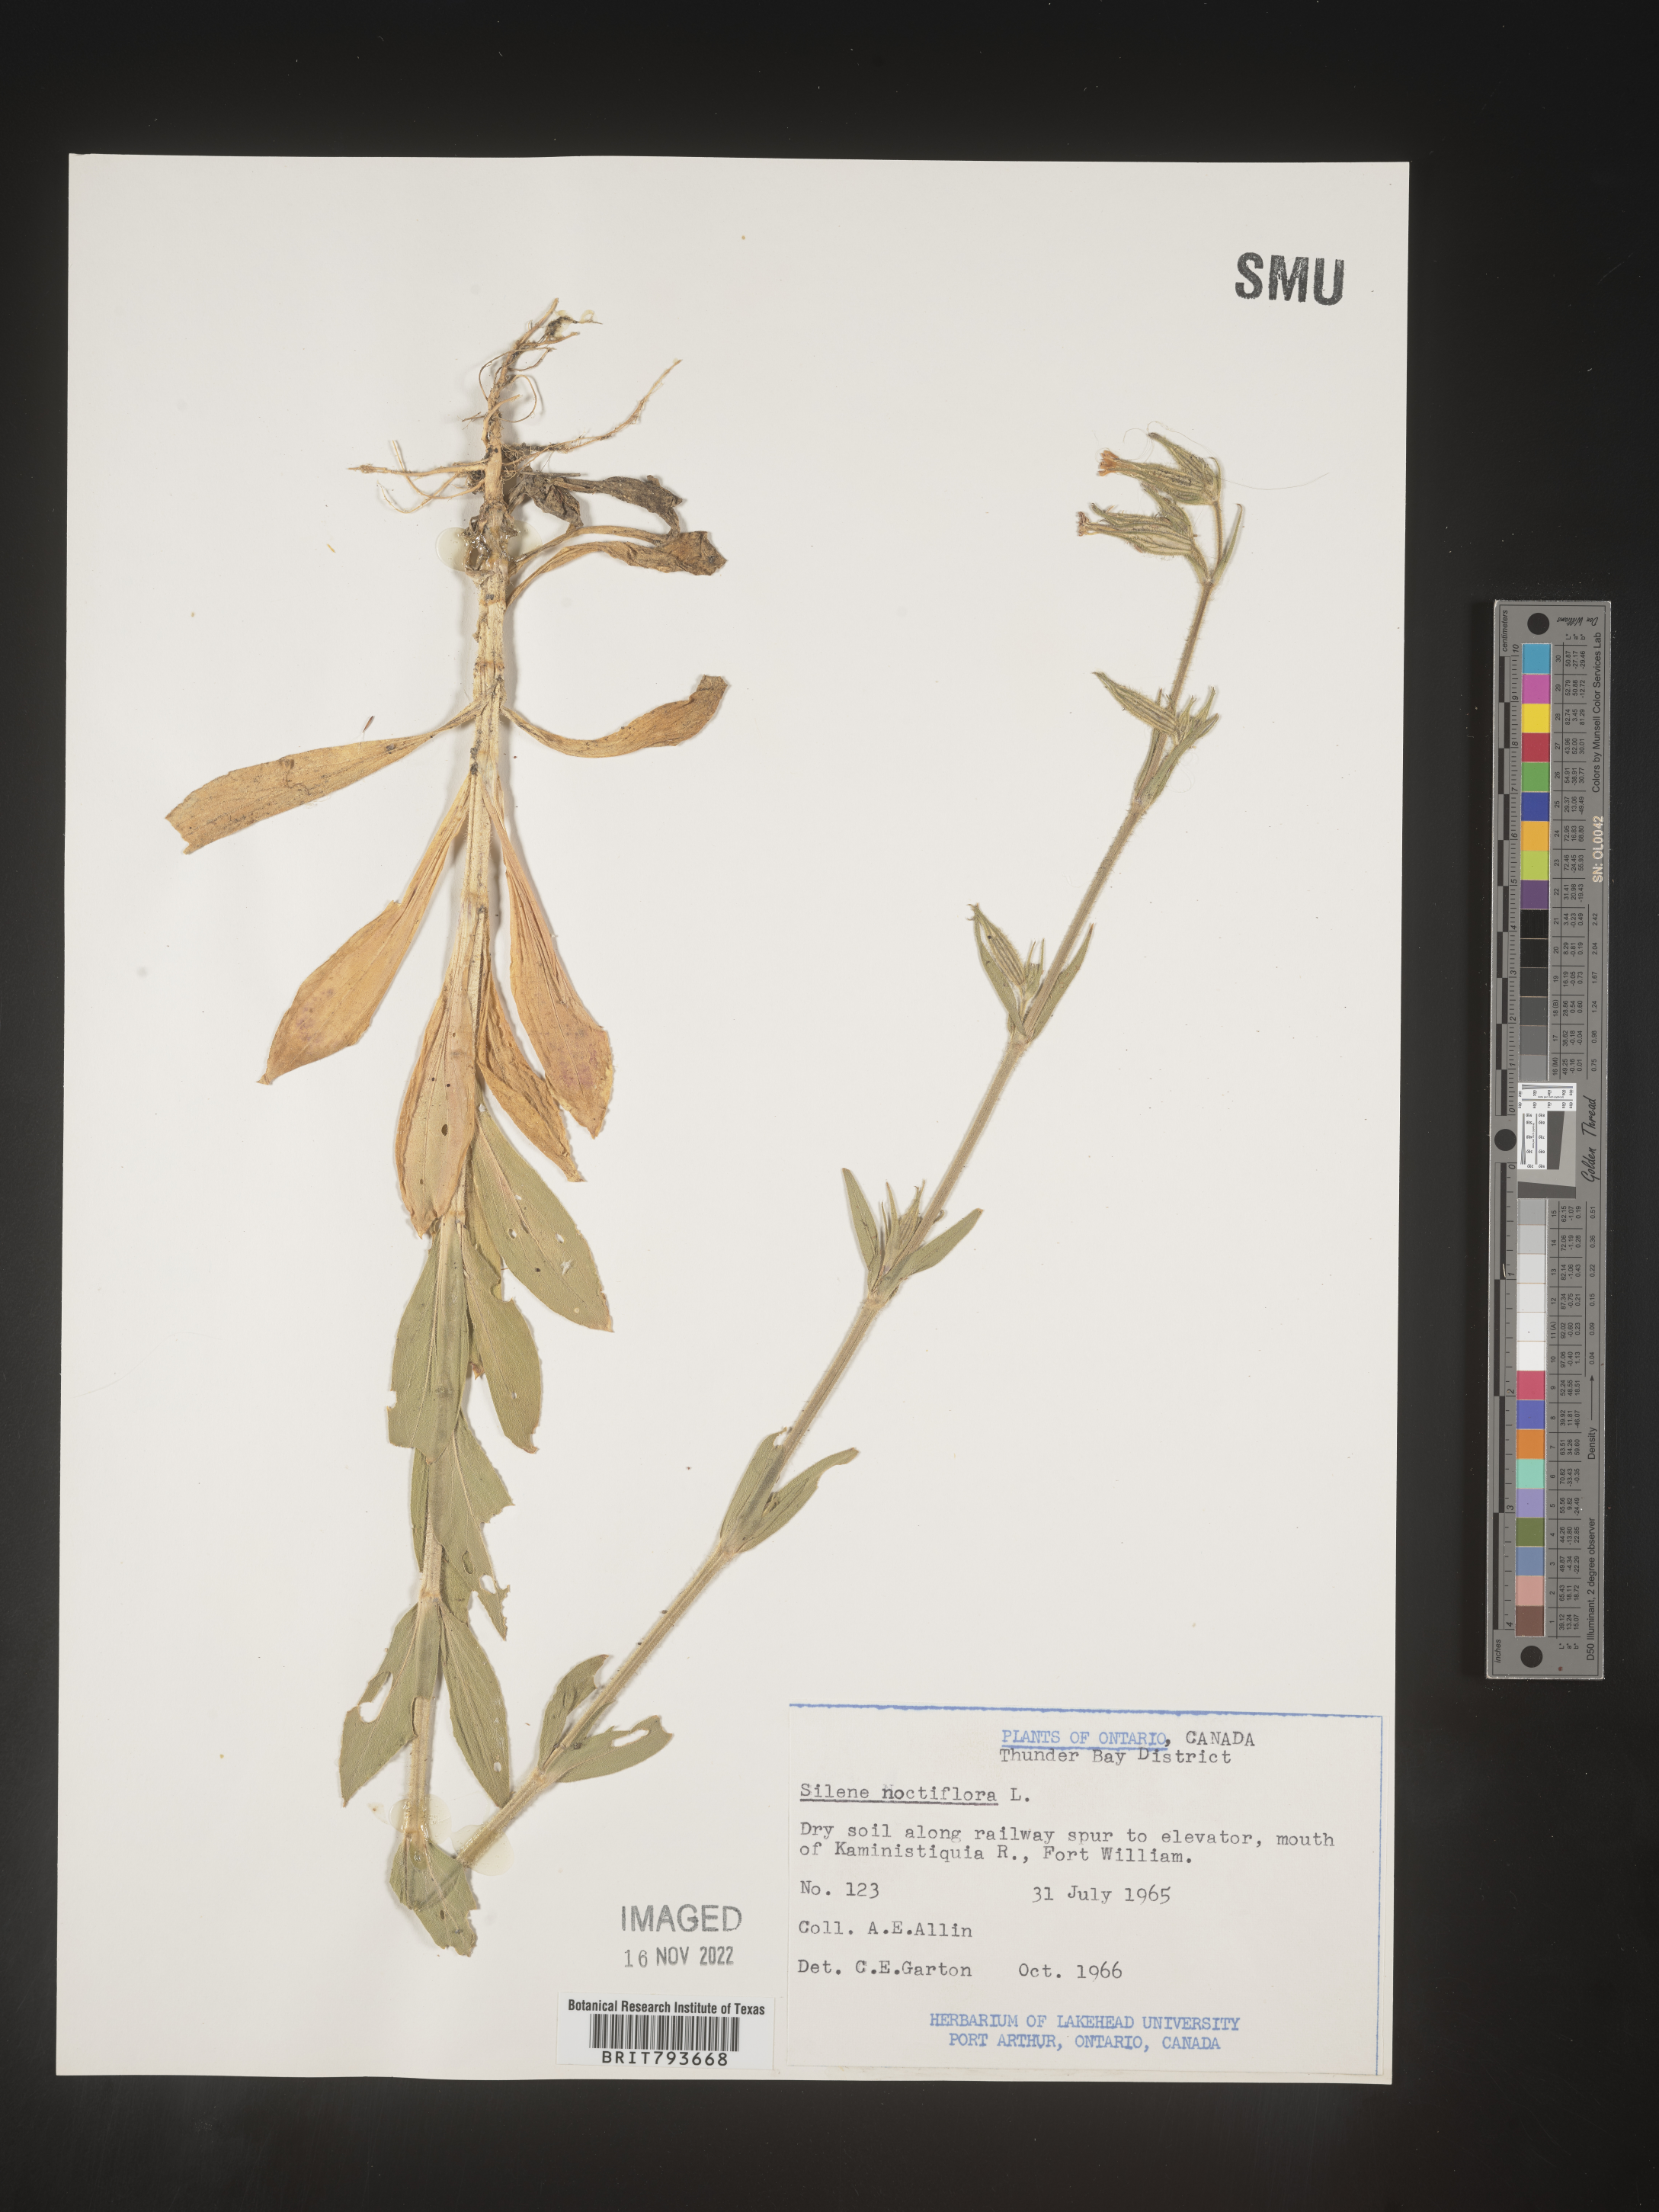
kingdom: Plantae
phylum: Tracheophyta
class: Magnoliopsida
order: Caryophyllales
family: Caryophyllaceae
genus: Silene
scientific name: Silene noctiflora
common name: Night-flowering catchfly
